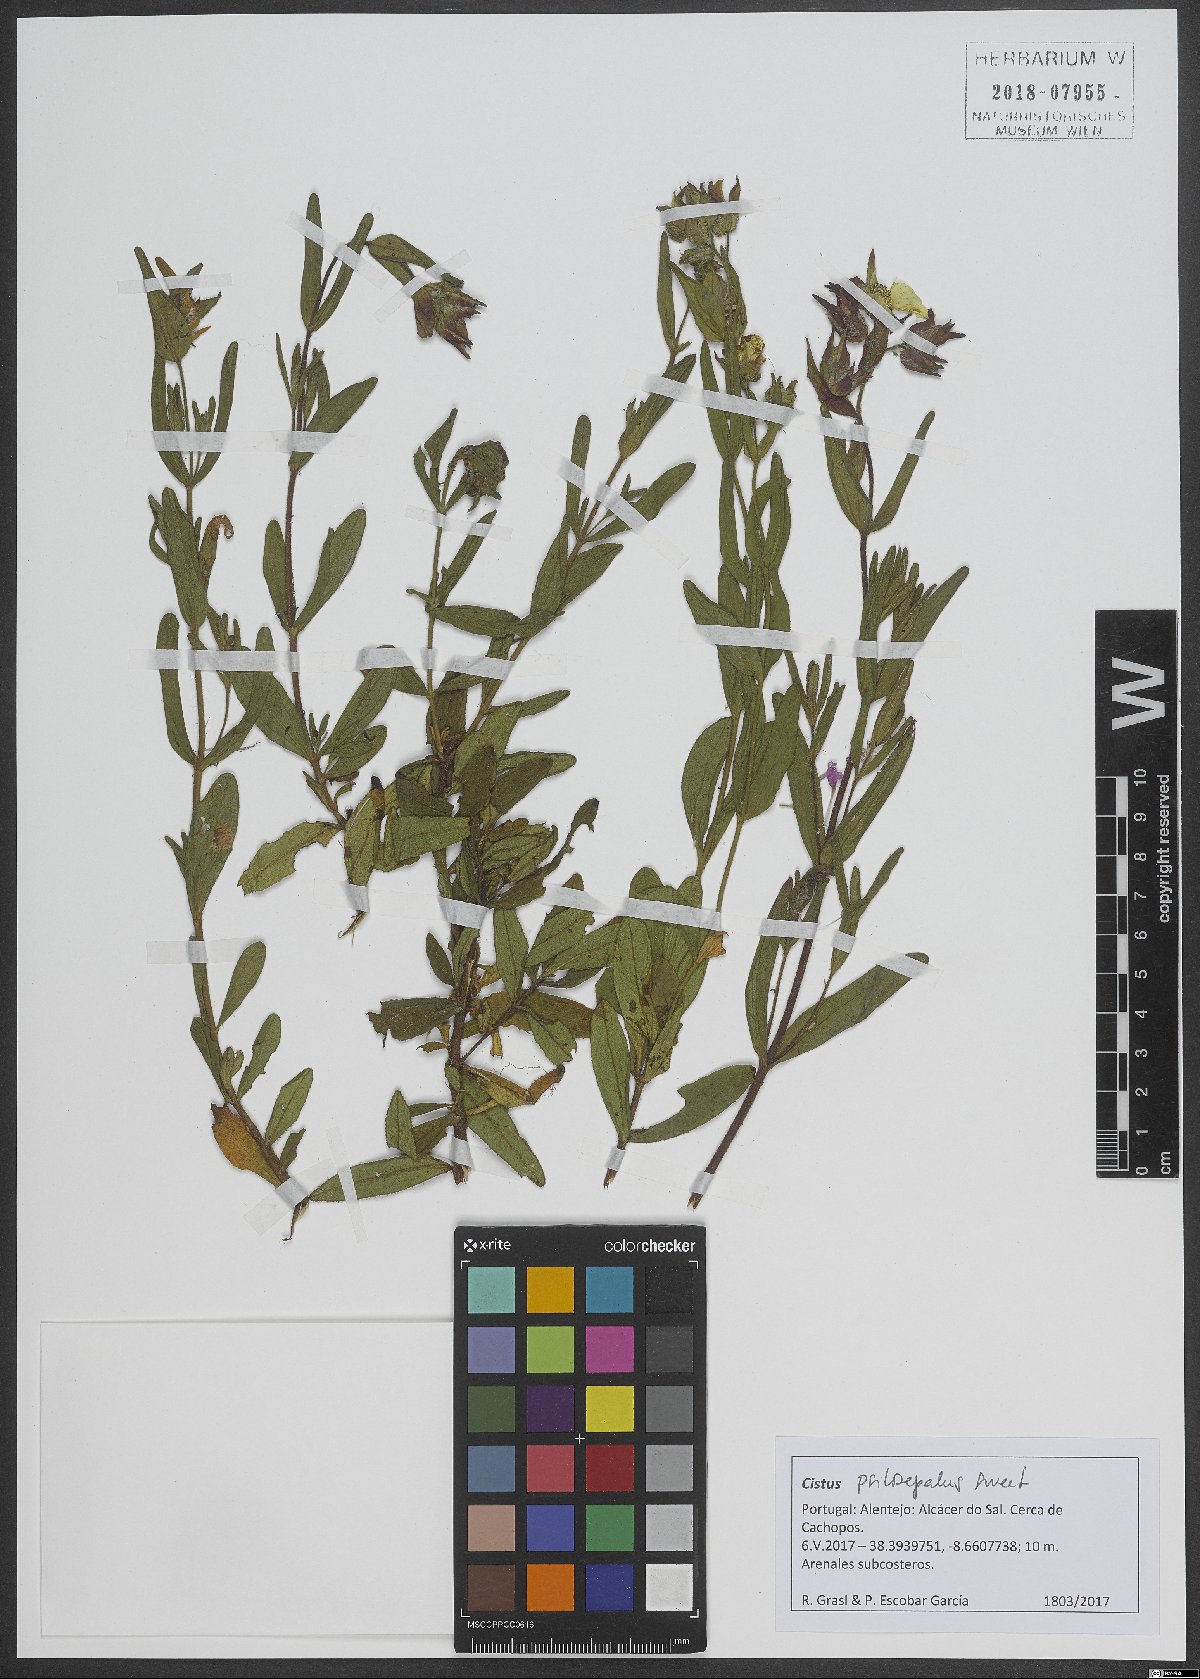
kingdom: Plantae
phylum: Tracheophyta
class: Magnoliopsida
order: Malvales
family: Cistaceae
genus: Cistus
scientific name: Cistus
